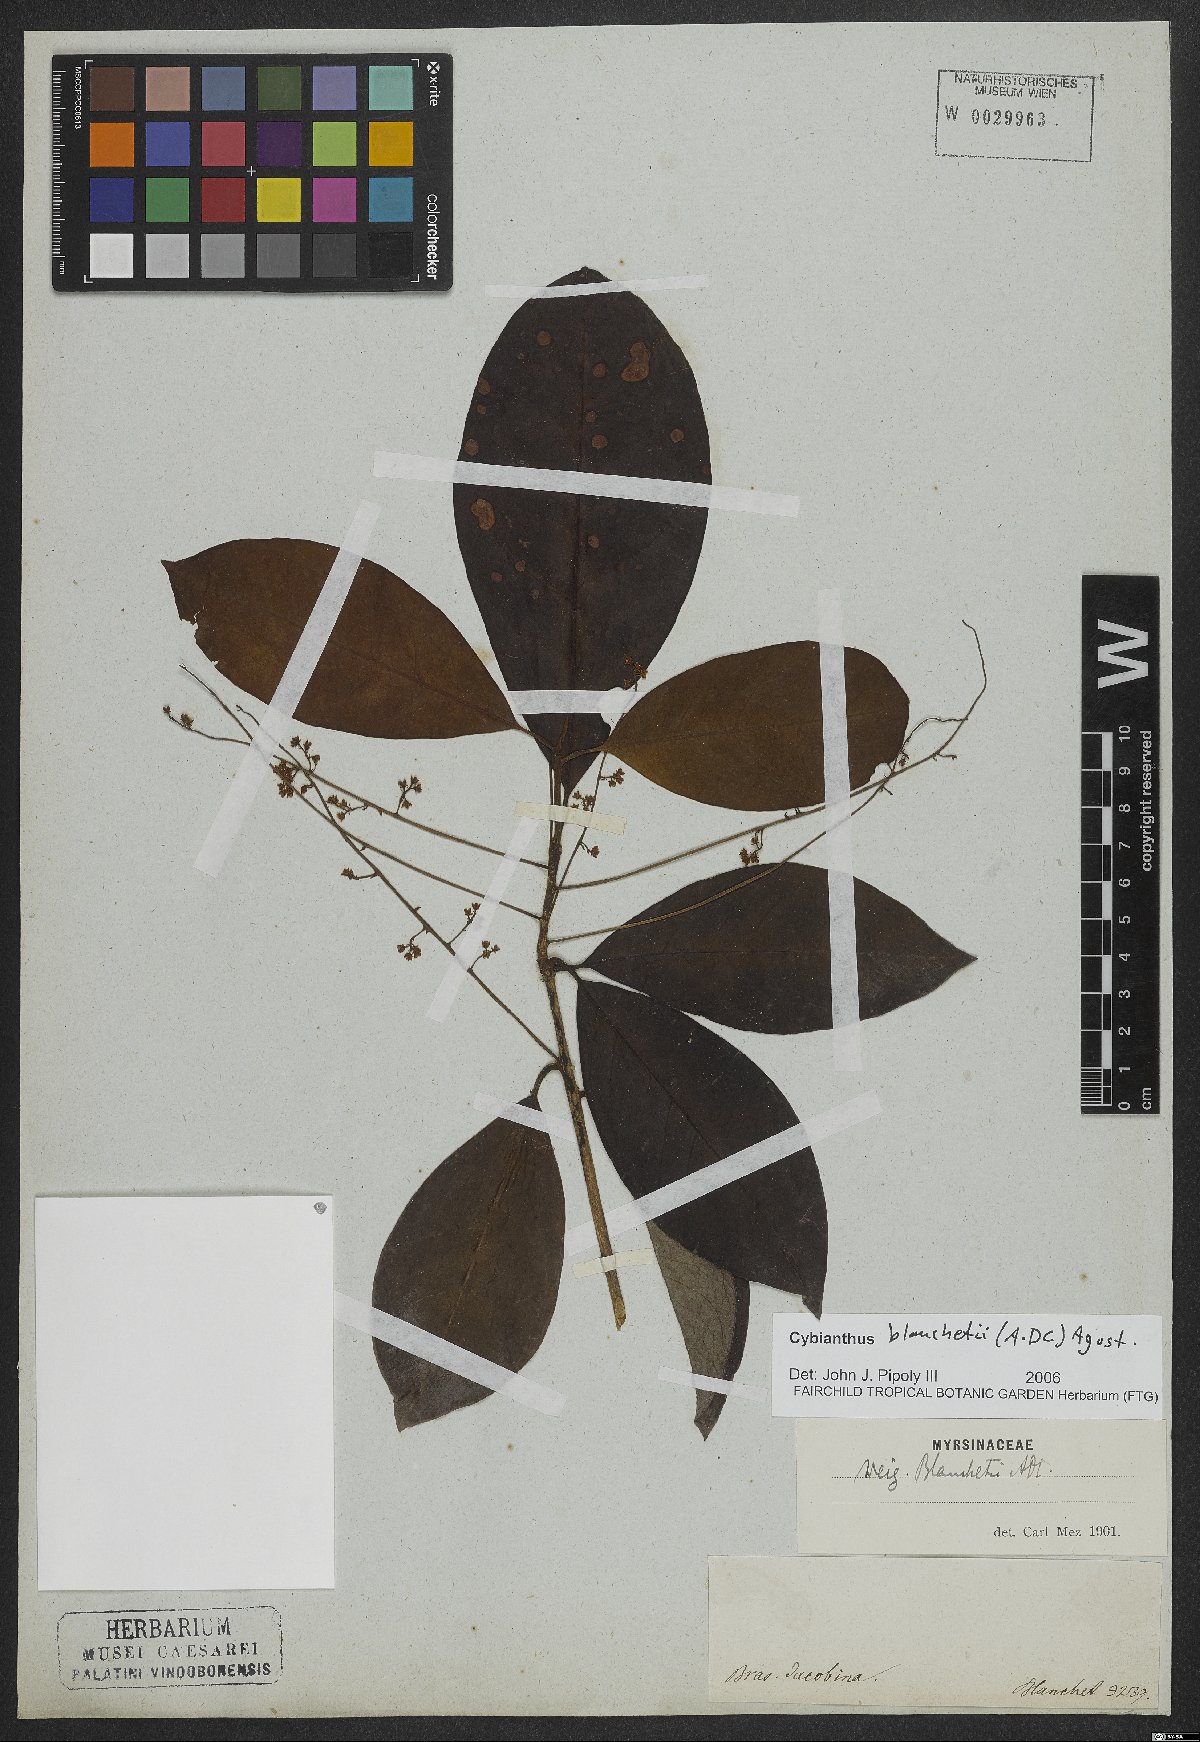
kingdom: Plantae
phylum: Tracheophyta
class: Magnoliopsida
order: Ericales
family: Primulaceae
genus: Cybianthus
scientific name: Cybianthus blanchetii
